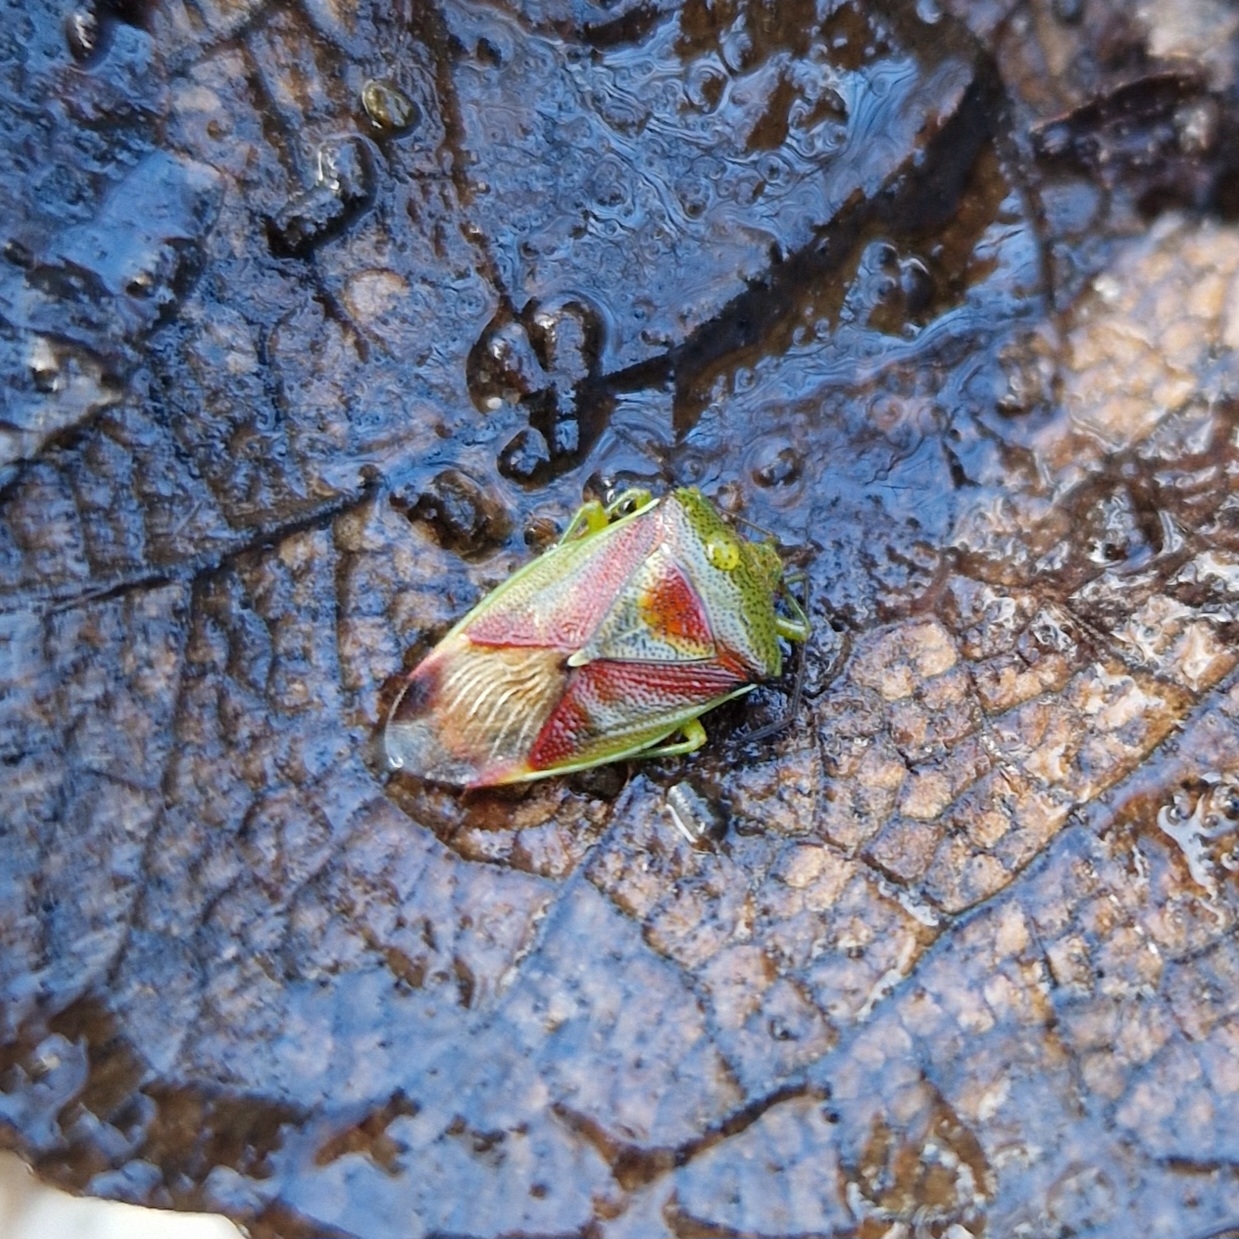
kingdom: Animalia
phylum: Arthropoda
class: Insecta
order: Hemiptera
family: Acanthosomatidae
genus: Elasmostethus
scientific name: Elasmostethus interstinctus
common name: Almindelig løvtæge
